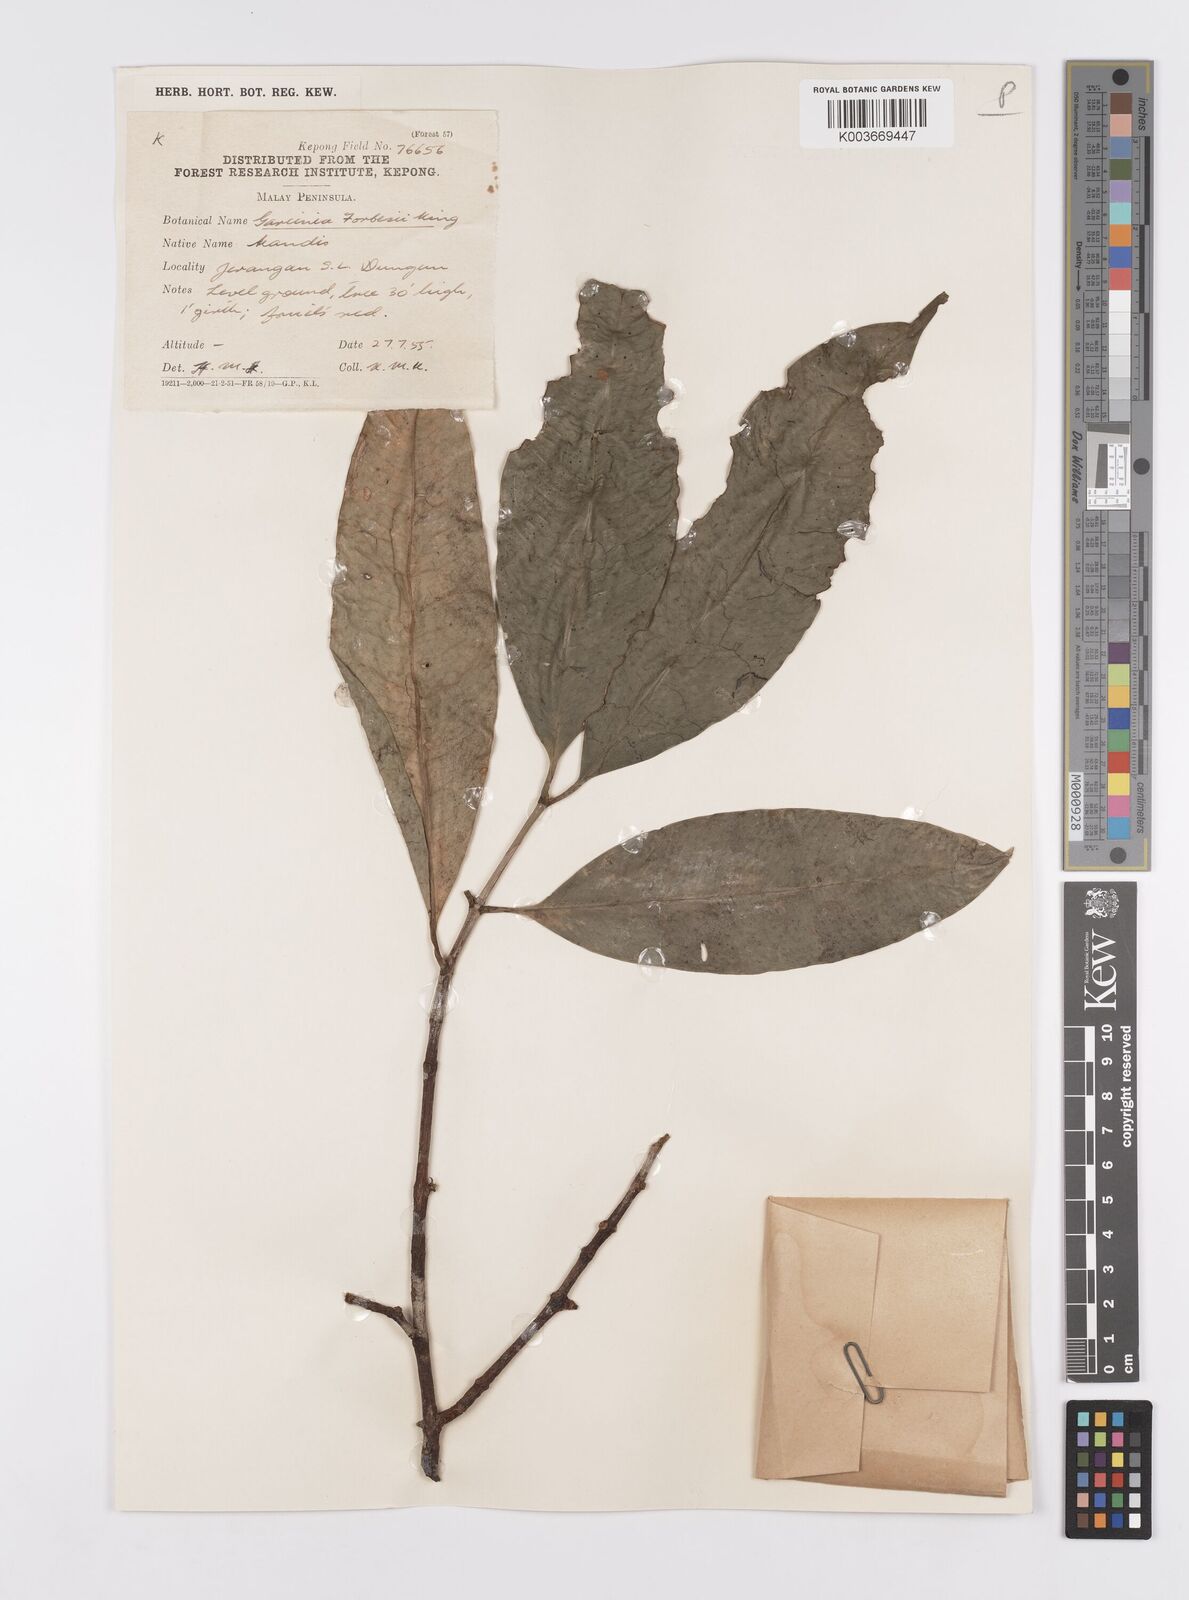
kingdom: Plantae
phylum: Tracheophyta
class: Magnoliopsida
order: Malpighiales
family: Clusiaceae
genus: Garcinia
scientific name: Garcinia forbesii
